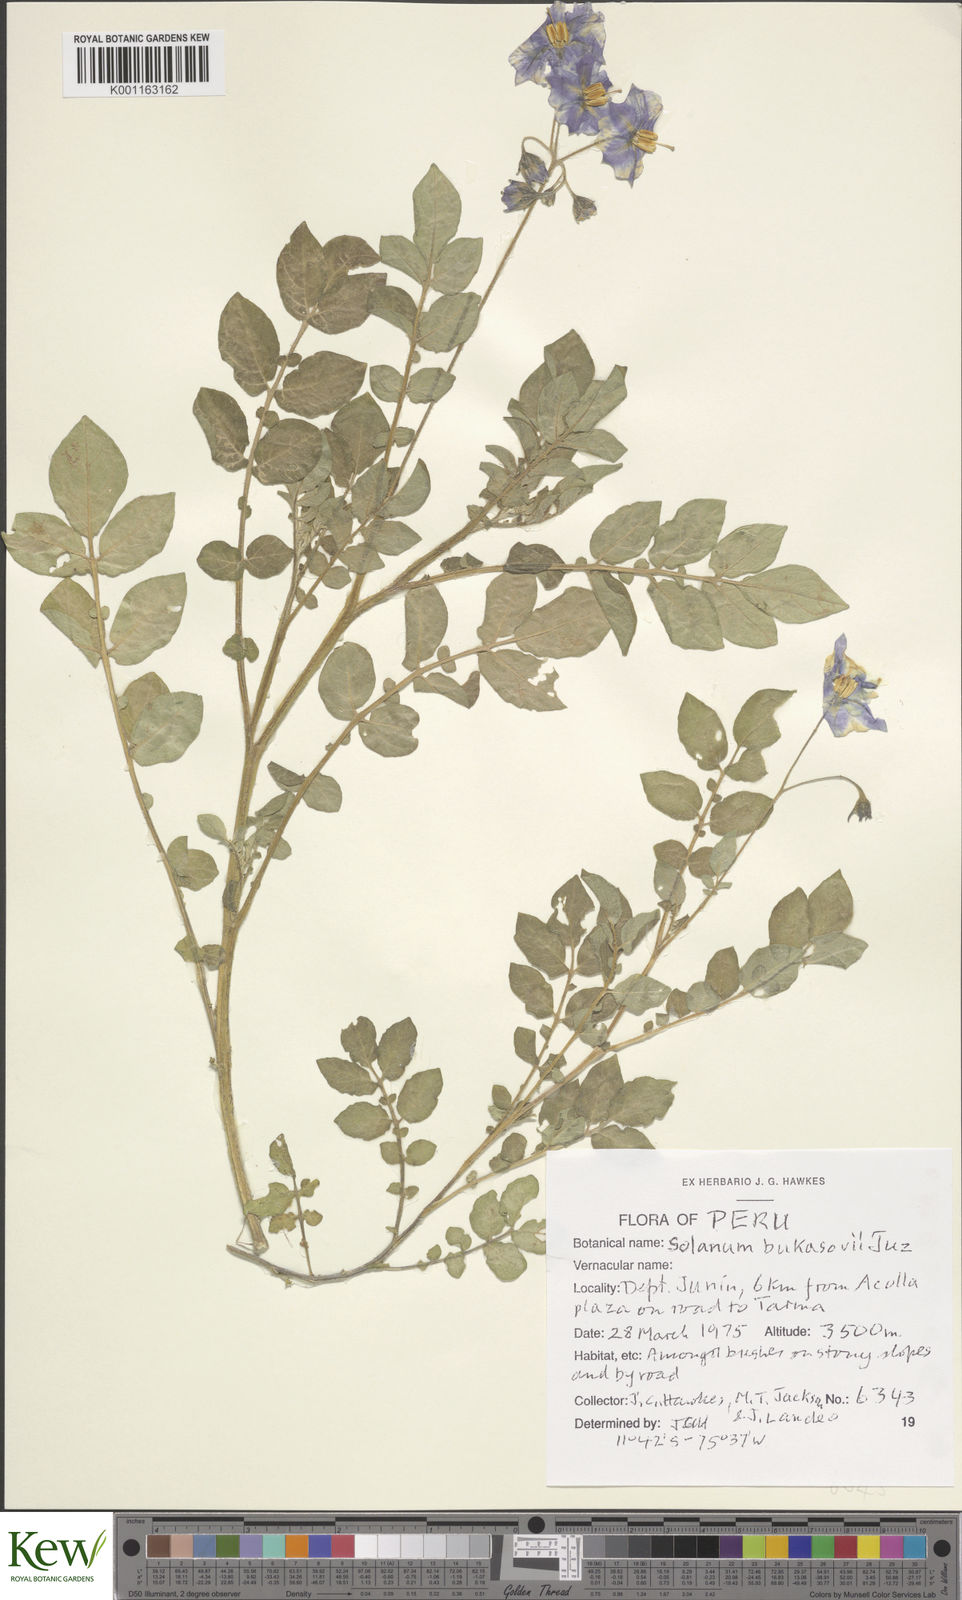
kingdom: Plantae
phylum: Tracheophyta
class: Magnoliopsida
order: Solanales
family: Solanaceae
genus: Solanum
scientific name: Solanum candolleanum
